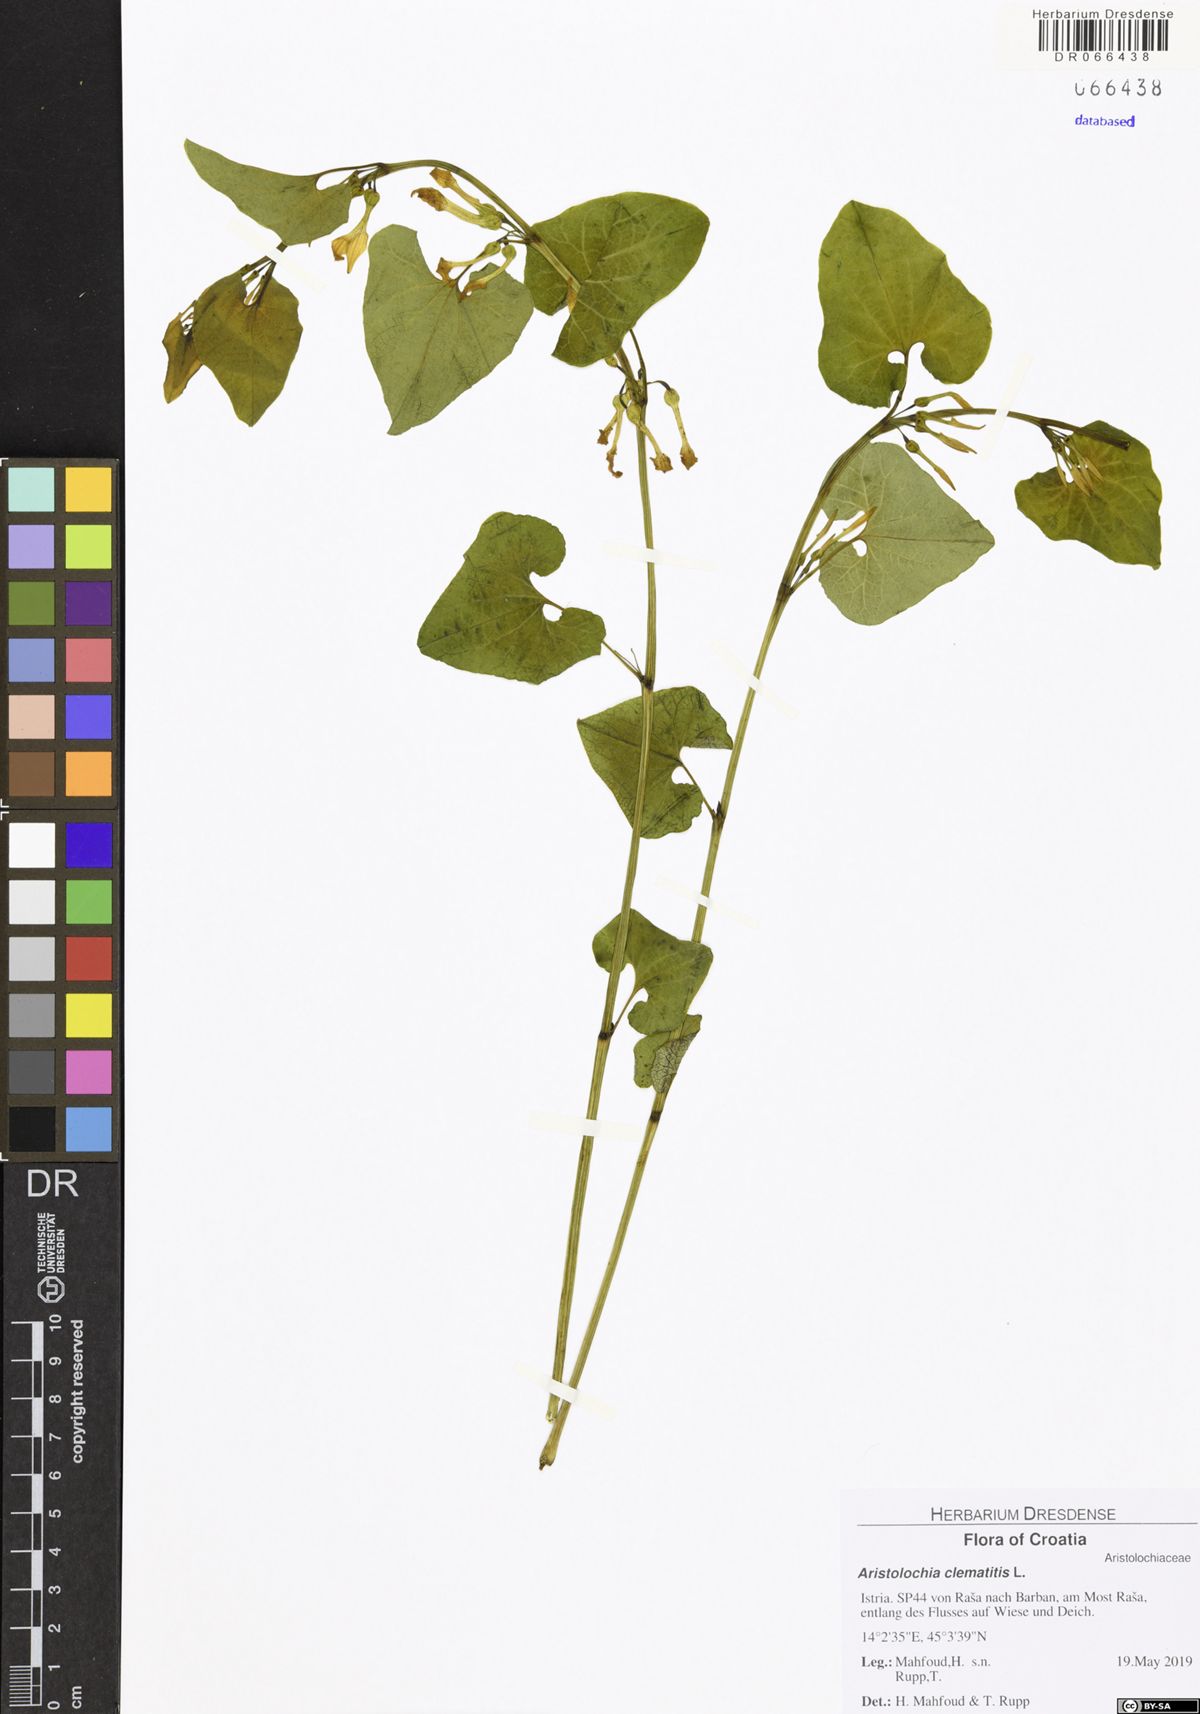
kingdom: Plantae
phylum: Tracheophyta
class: Magnoliopsida
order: Piperales
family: Aristolochiaceae
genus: Aristolochia
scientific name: Aristolochia clematitis
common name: Birthwort
